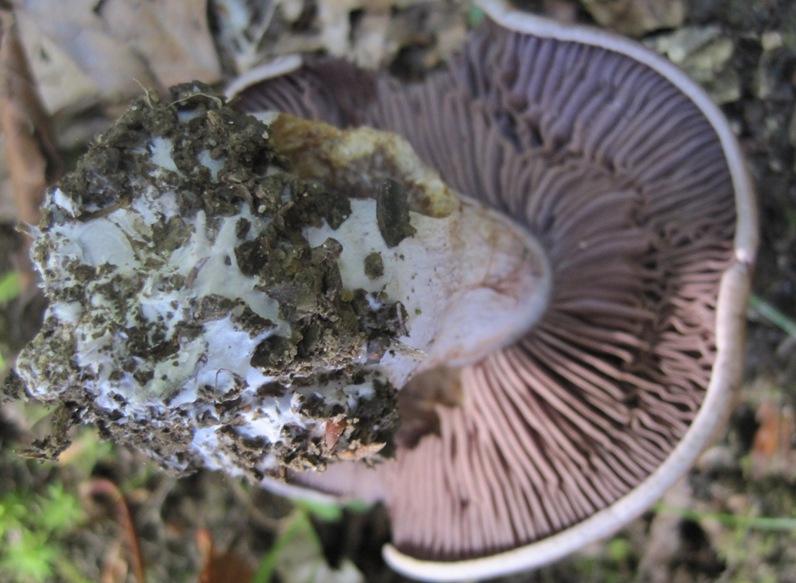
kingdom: Fungi
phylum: Basidiomycota
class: Agaricomycetes
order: Agaricales
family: Cortinariaceae
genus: Thaxterogaster
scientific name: Thaxterogaster subpurpurascens
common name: mørkblånende slørhat
